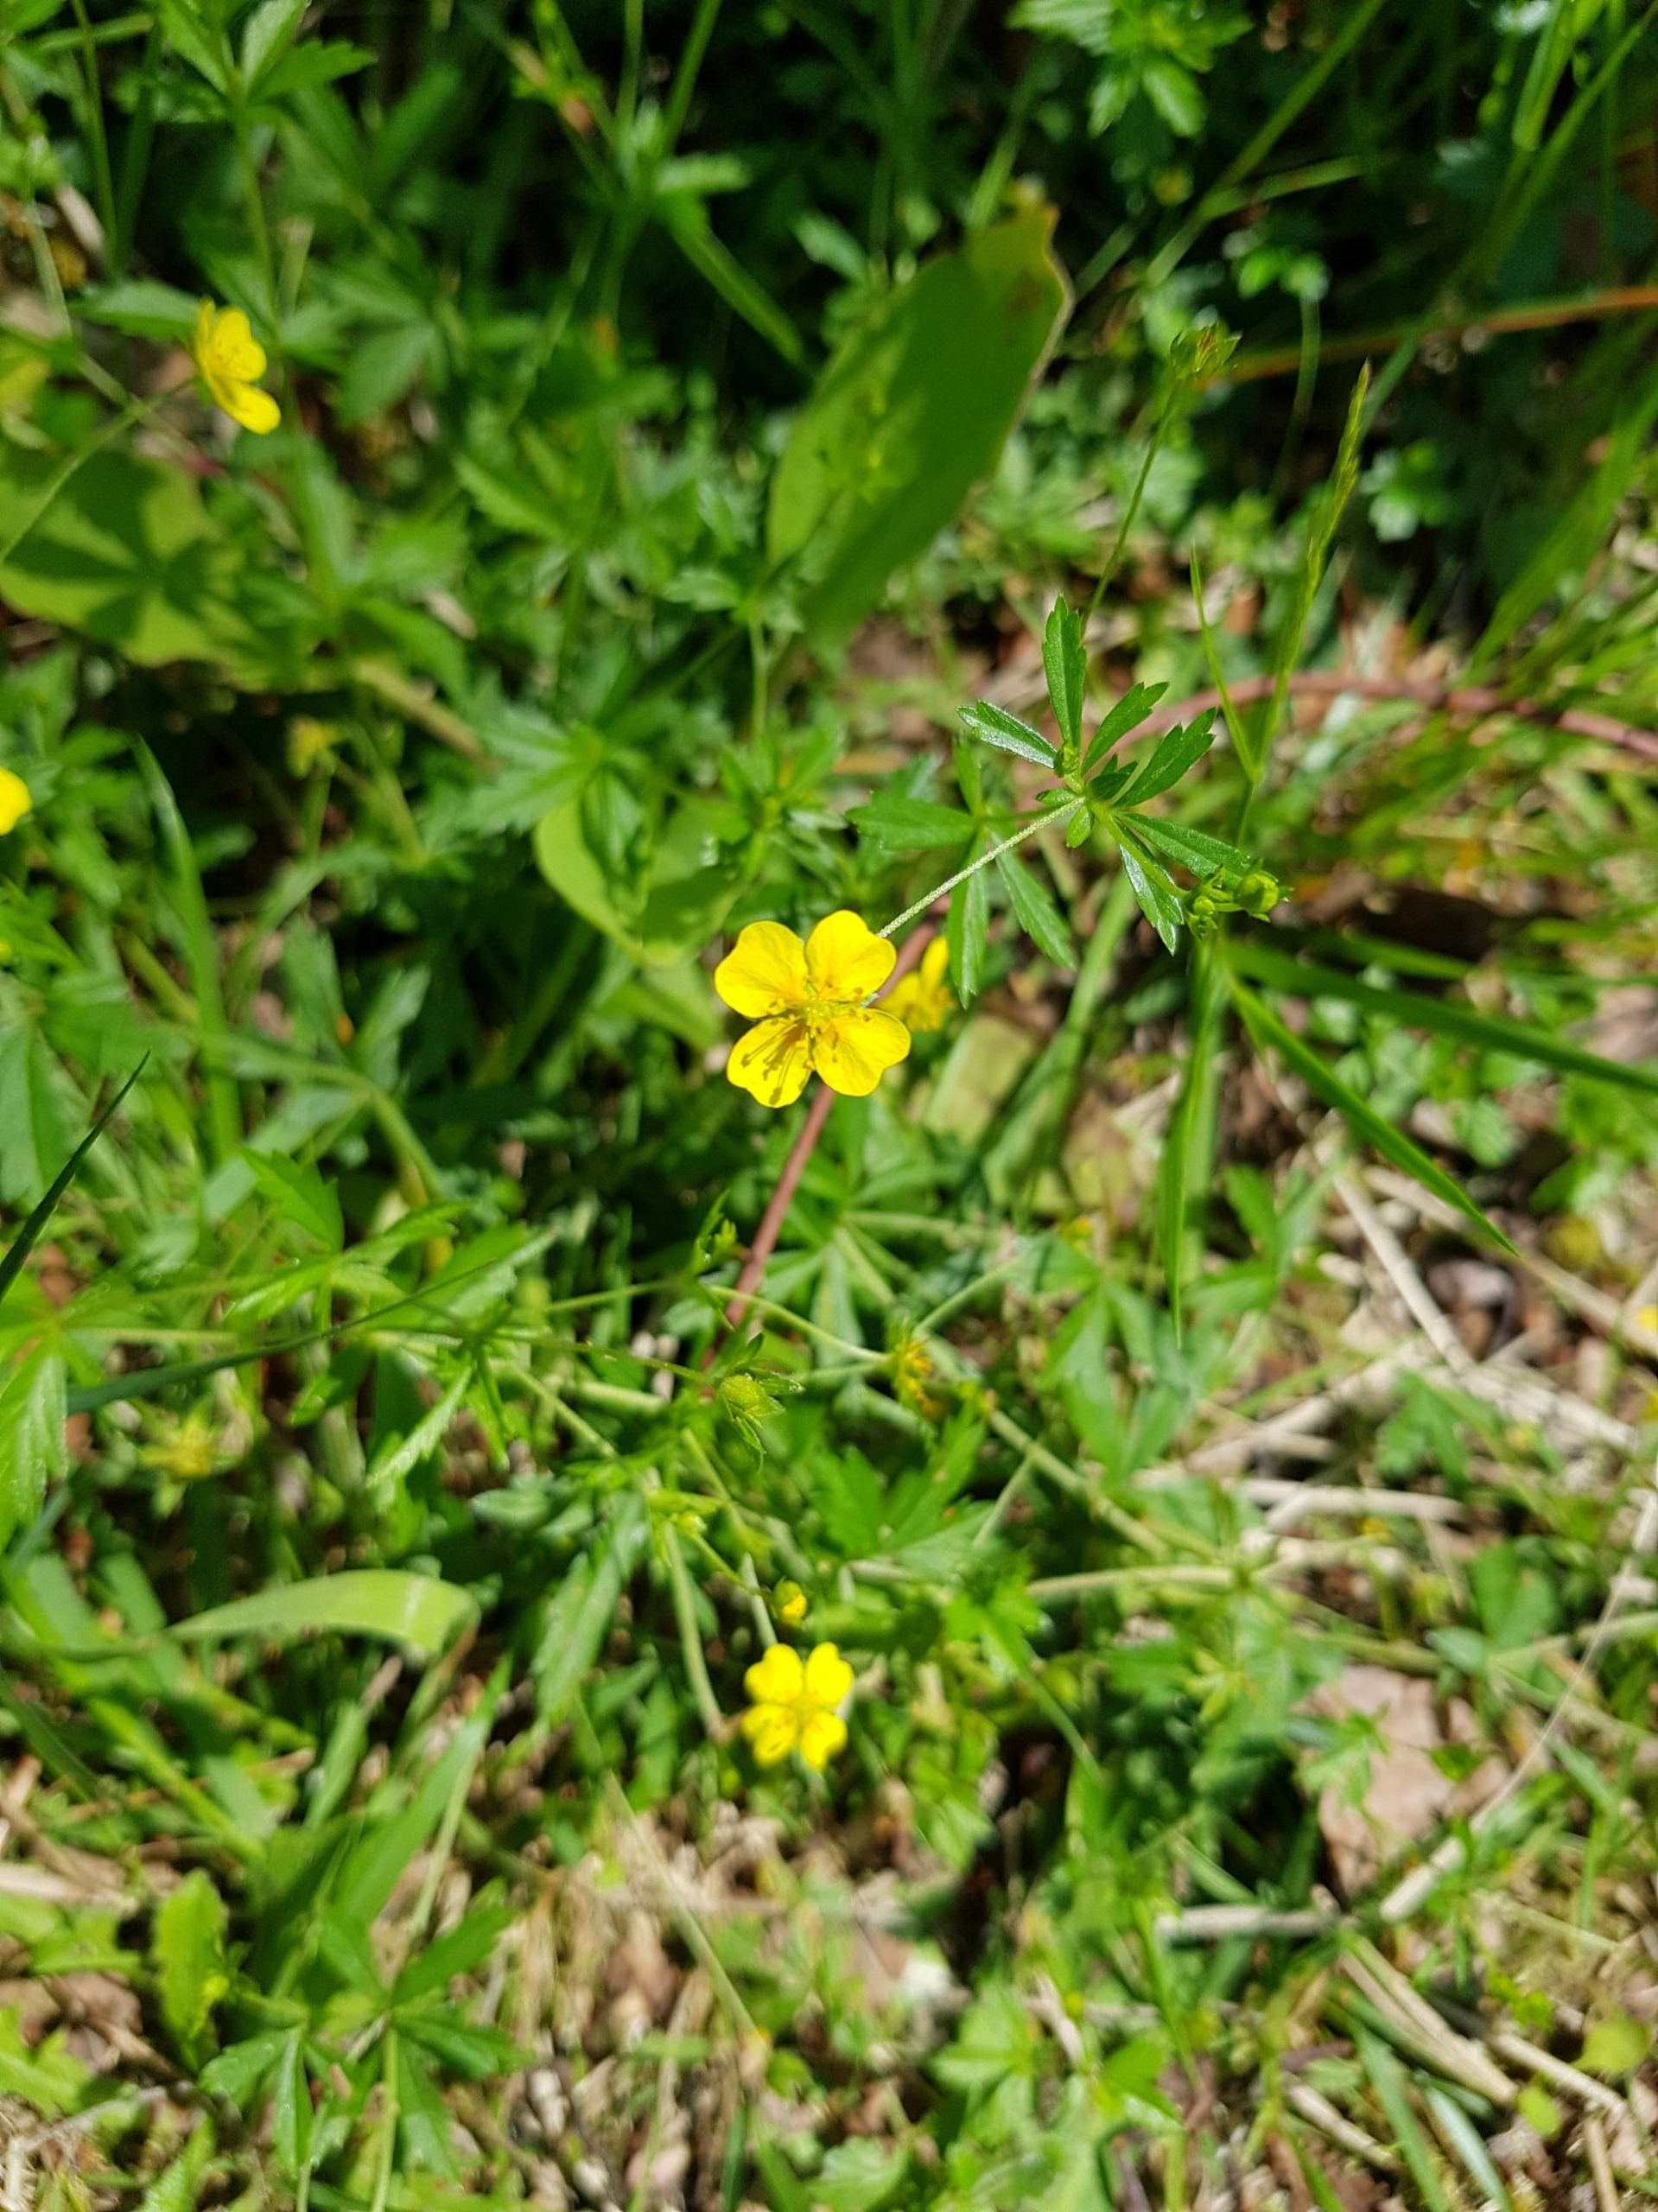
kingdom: Plantae
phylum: Tracheophyta
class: Magnoliopsida
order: Rosales
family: Rosaceae
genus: Potentilla
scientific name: Potentilla erecta
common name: Tormentil
